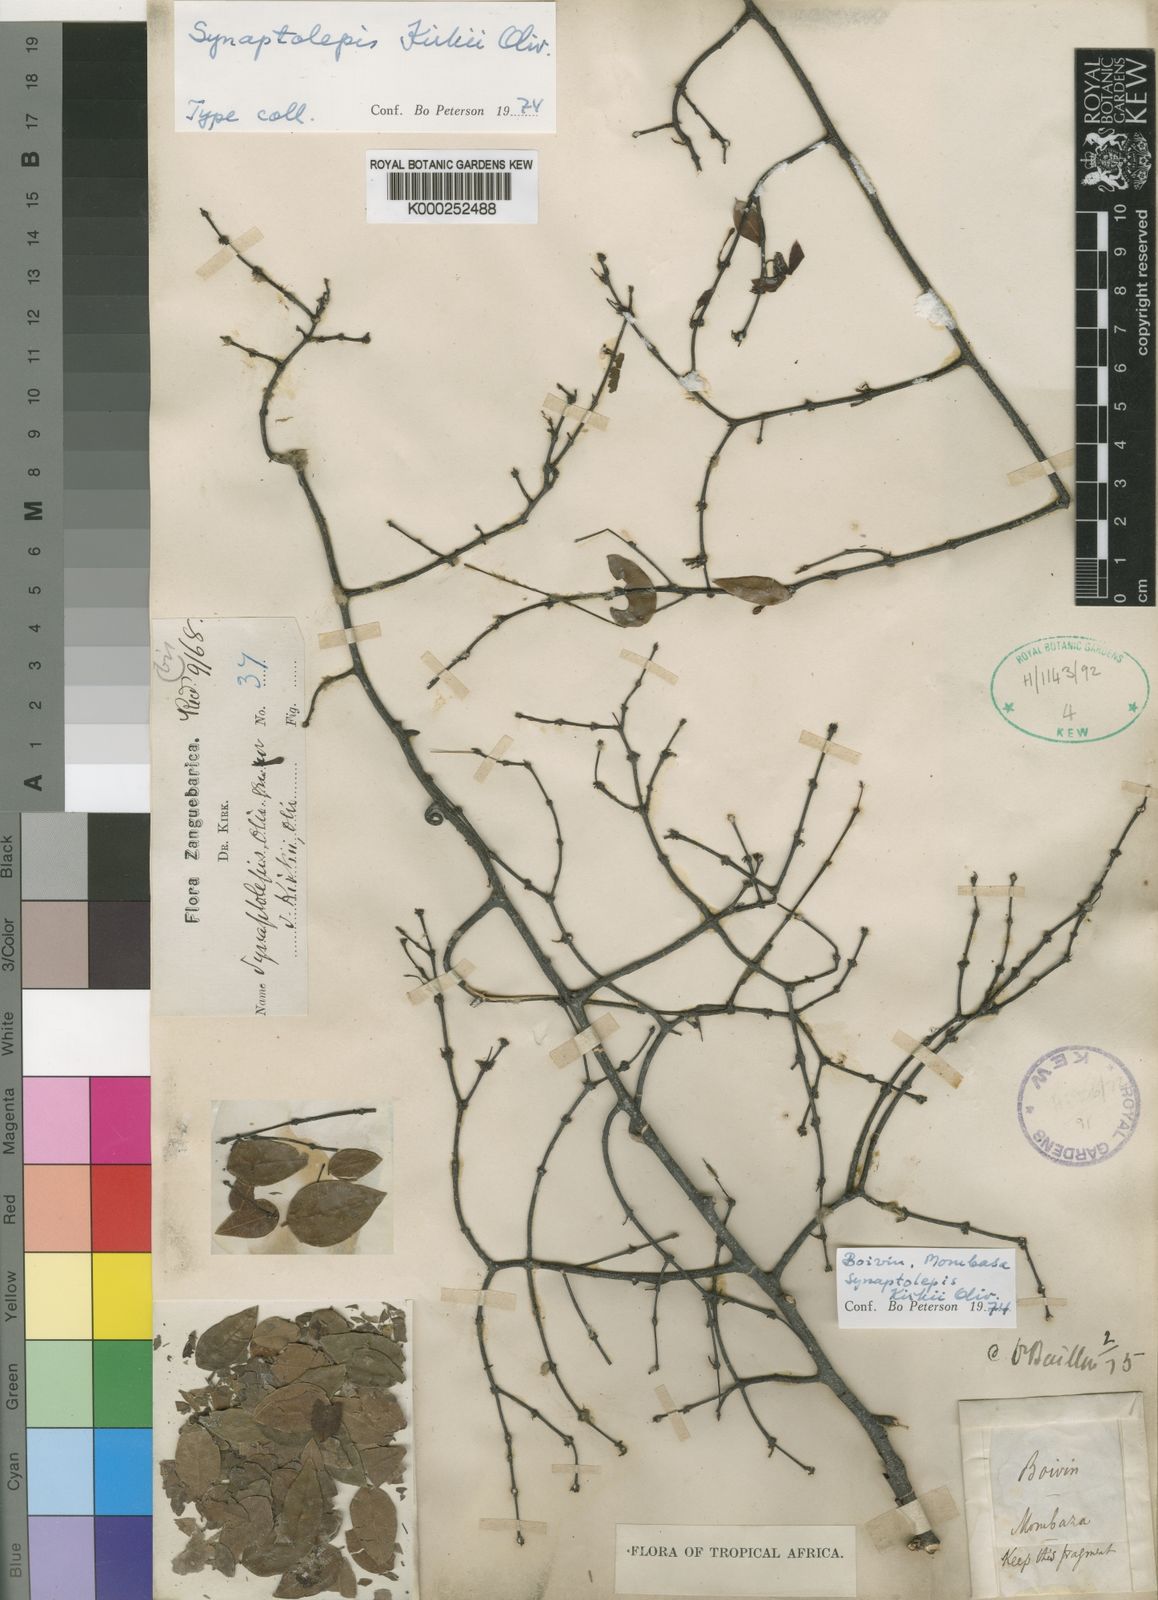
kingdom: Plantae
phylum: Tracheophyta
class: Magnoliopsida
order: Malvales
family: Thymelaeaceae
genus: Synaptolepis
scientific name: Synaptolepis kirkii
